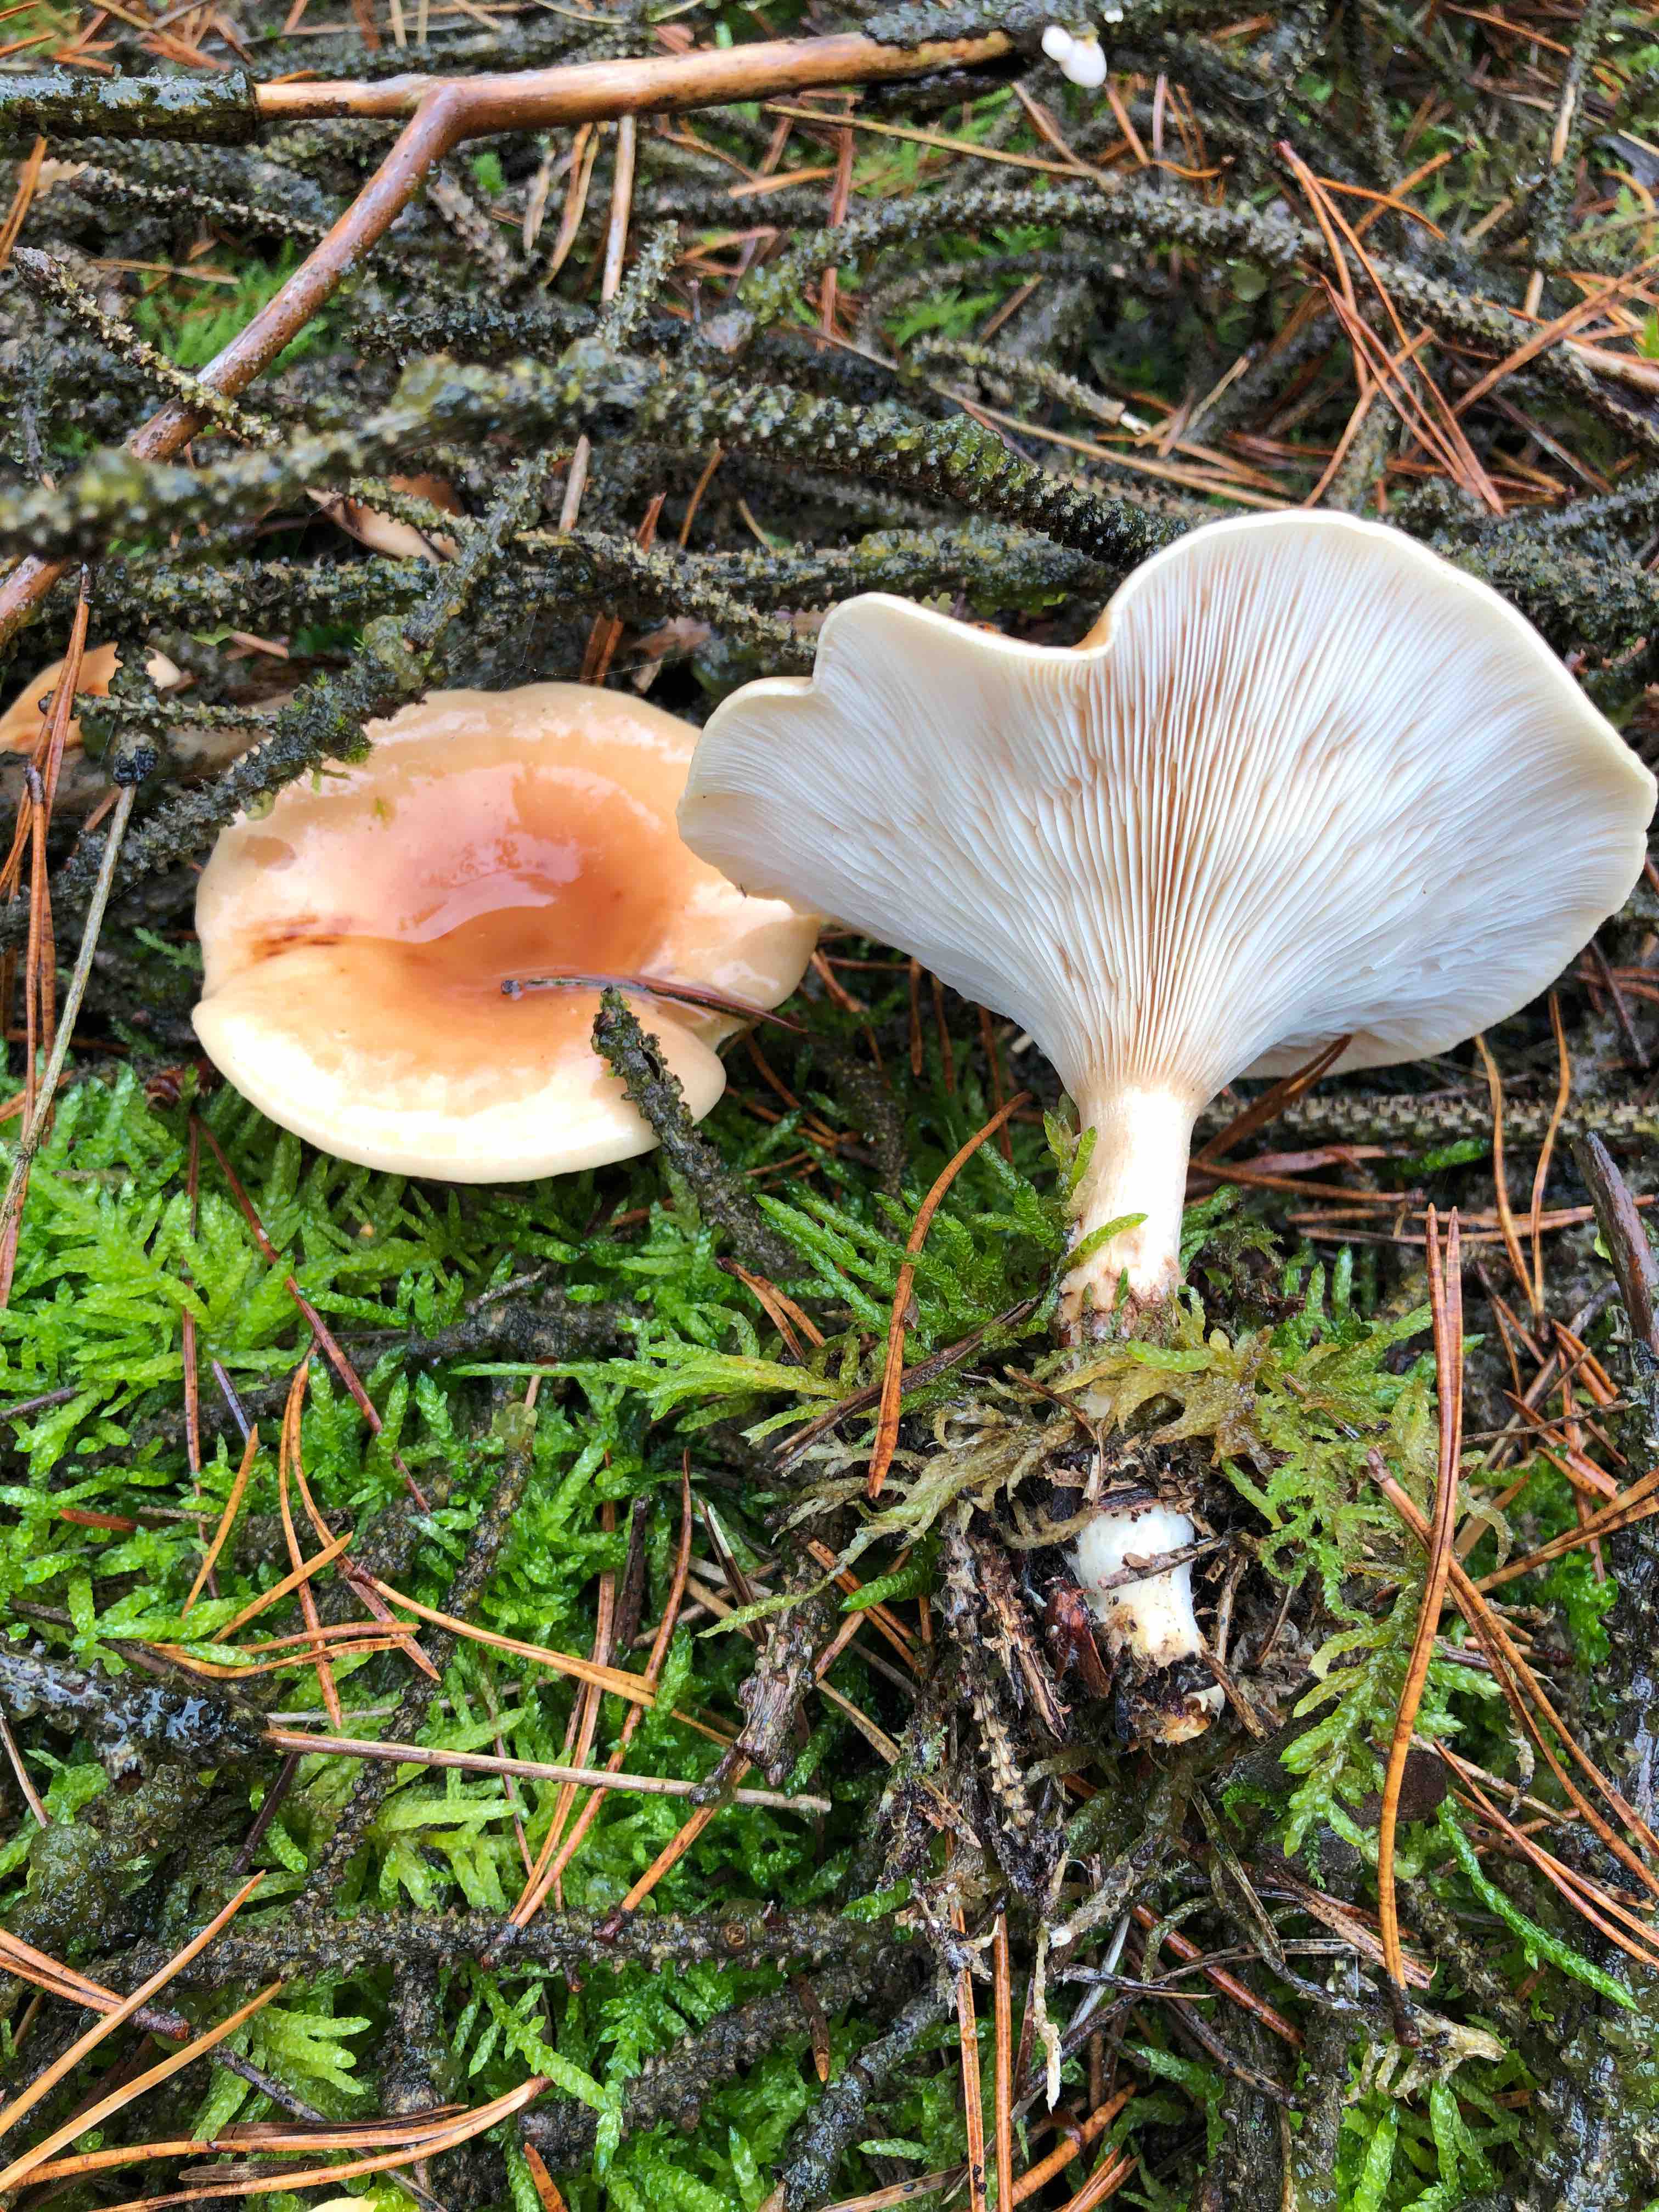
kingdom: Fungi
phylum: Basidiomycota
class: Agaricomycetes
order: Agaricales
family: Tricholomataceae
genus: Paralepista
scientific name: Paralepista flaccida
